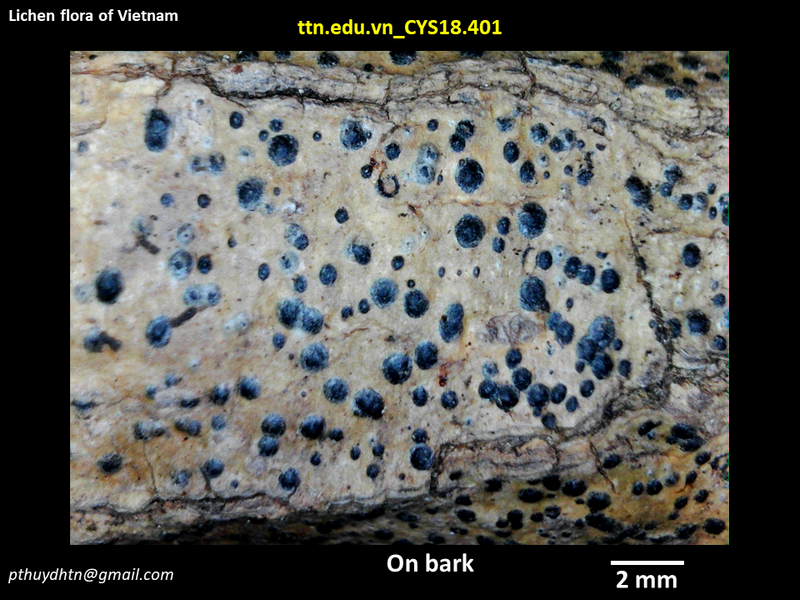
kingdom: Fungi
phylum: Ascomycota
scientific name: Ascomycota
